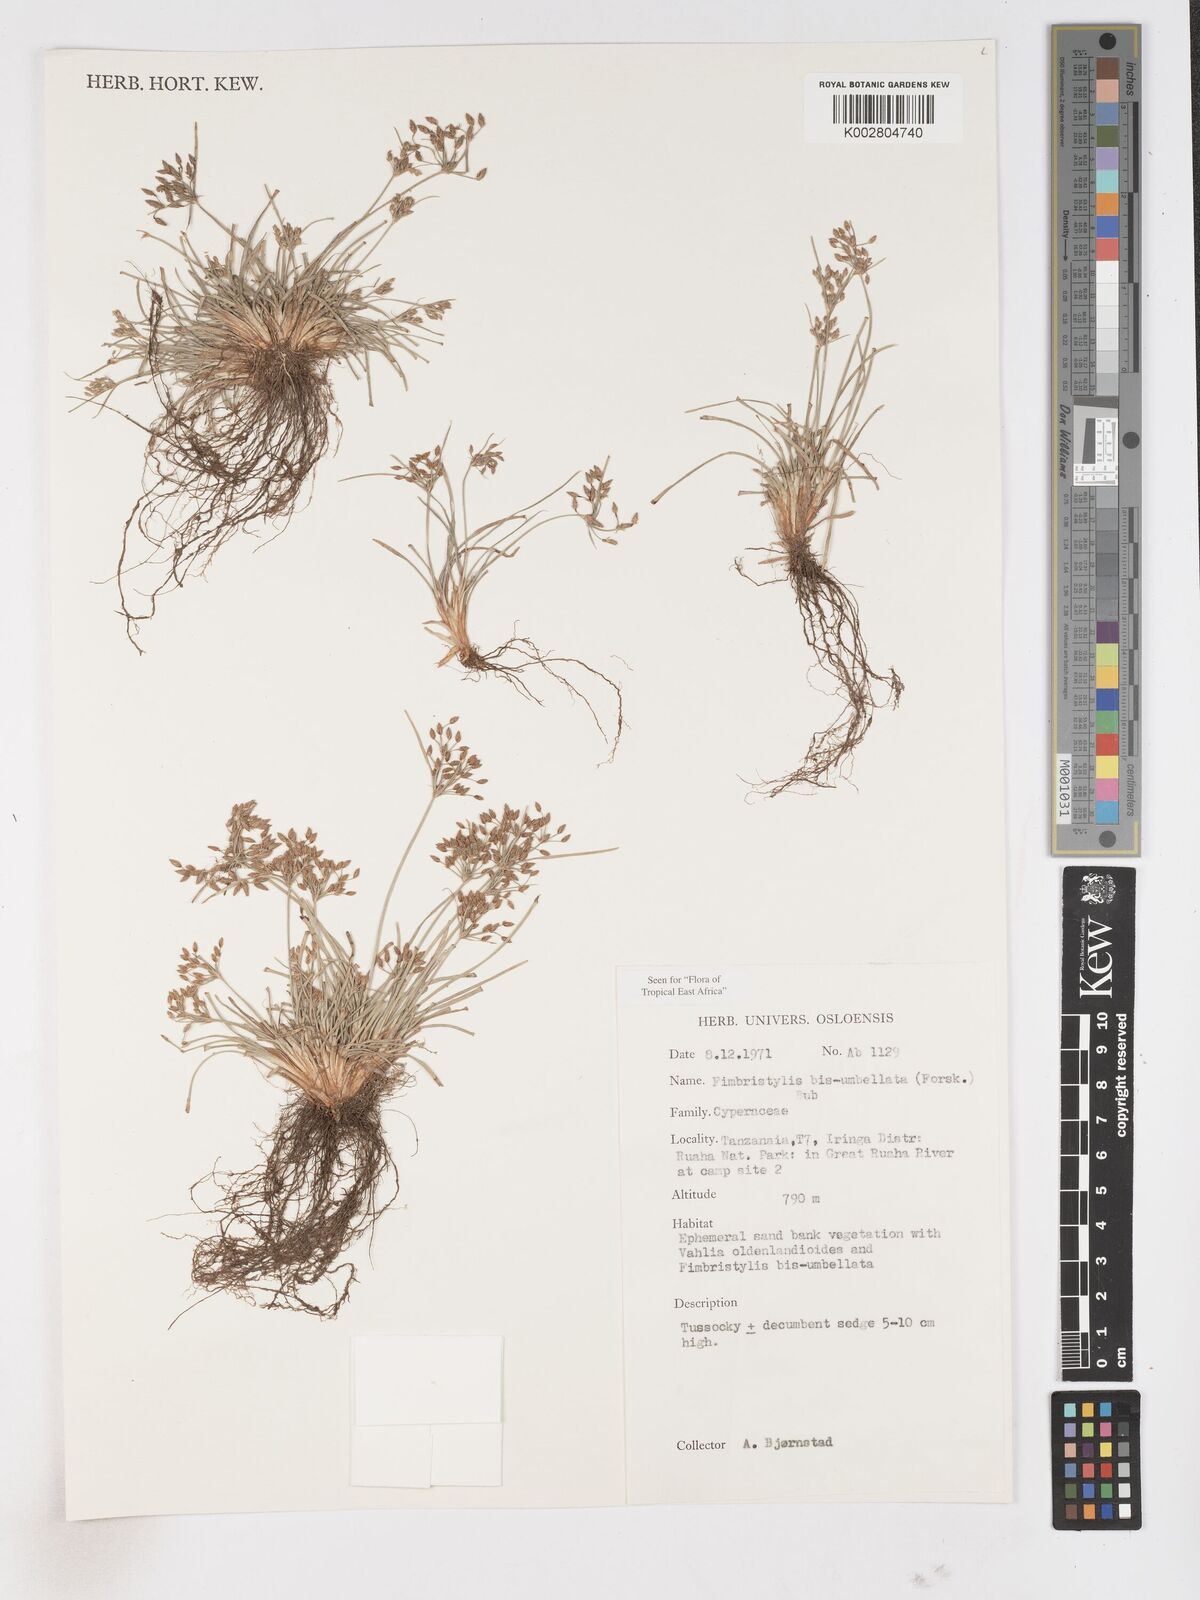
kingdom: Plantae
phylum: Tracheophyta
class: Liliopsida
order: Poales
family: Cyperaceae
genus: Fimbristylis
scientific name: Fimbristylis bisumbellata
